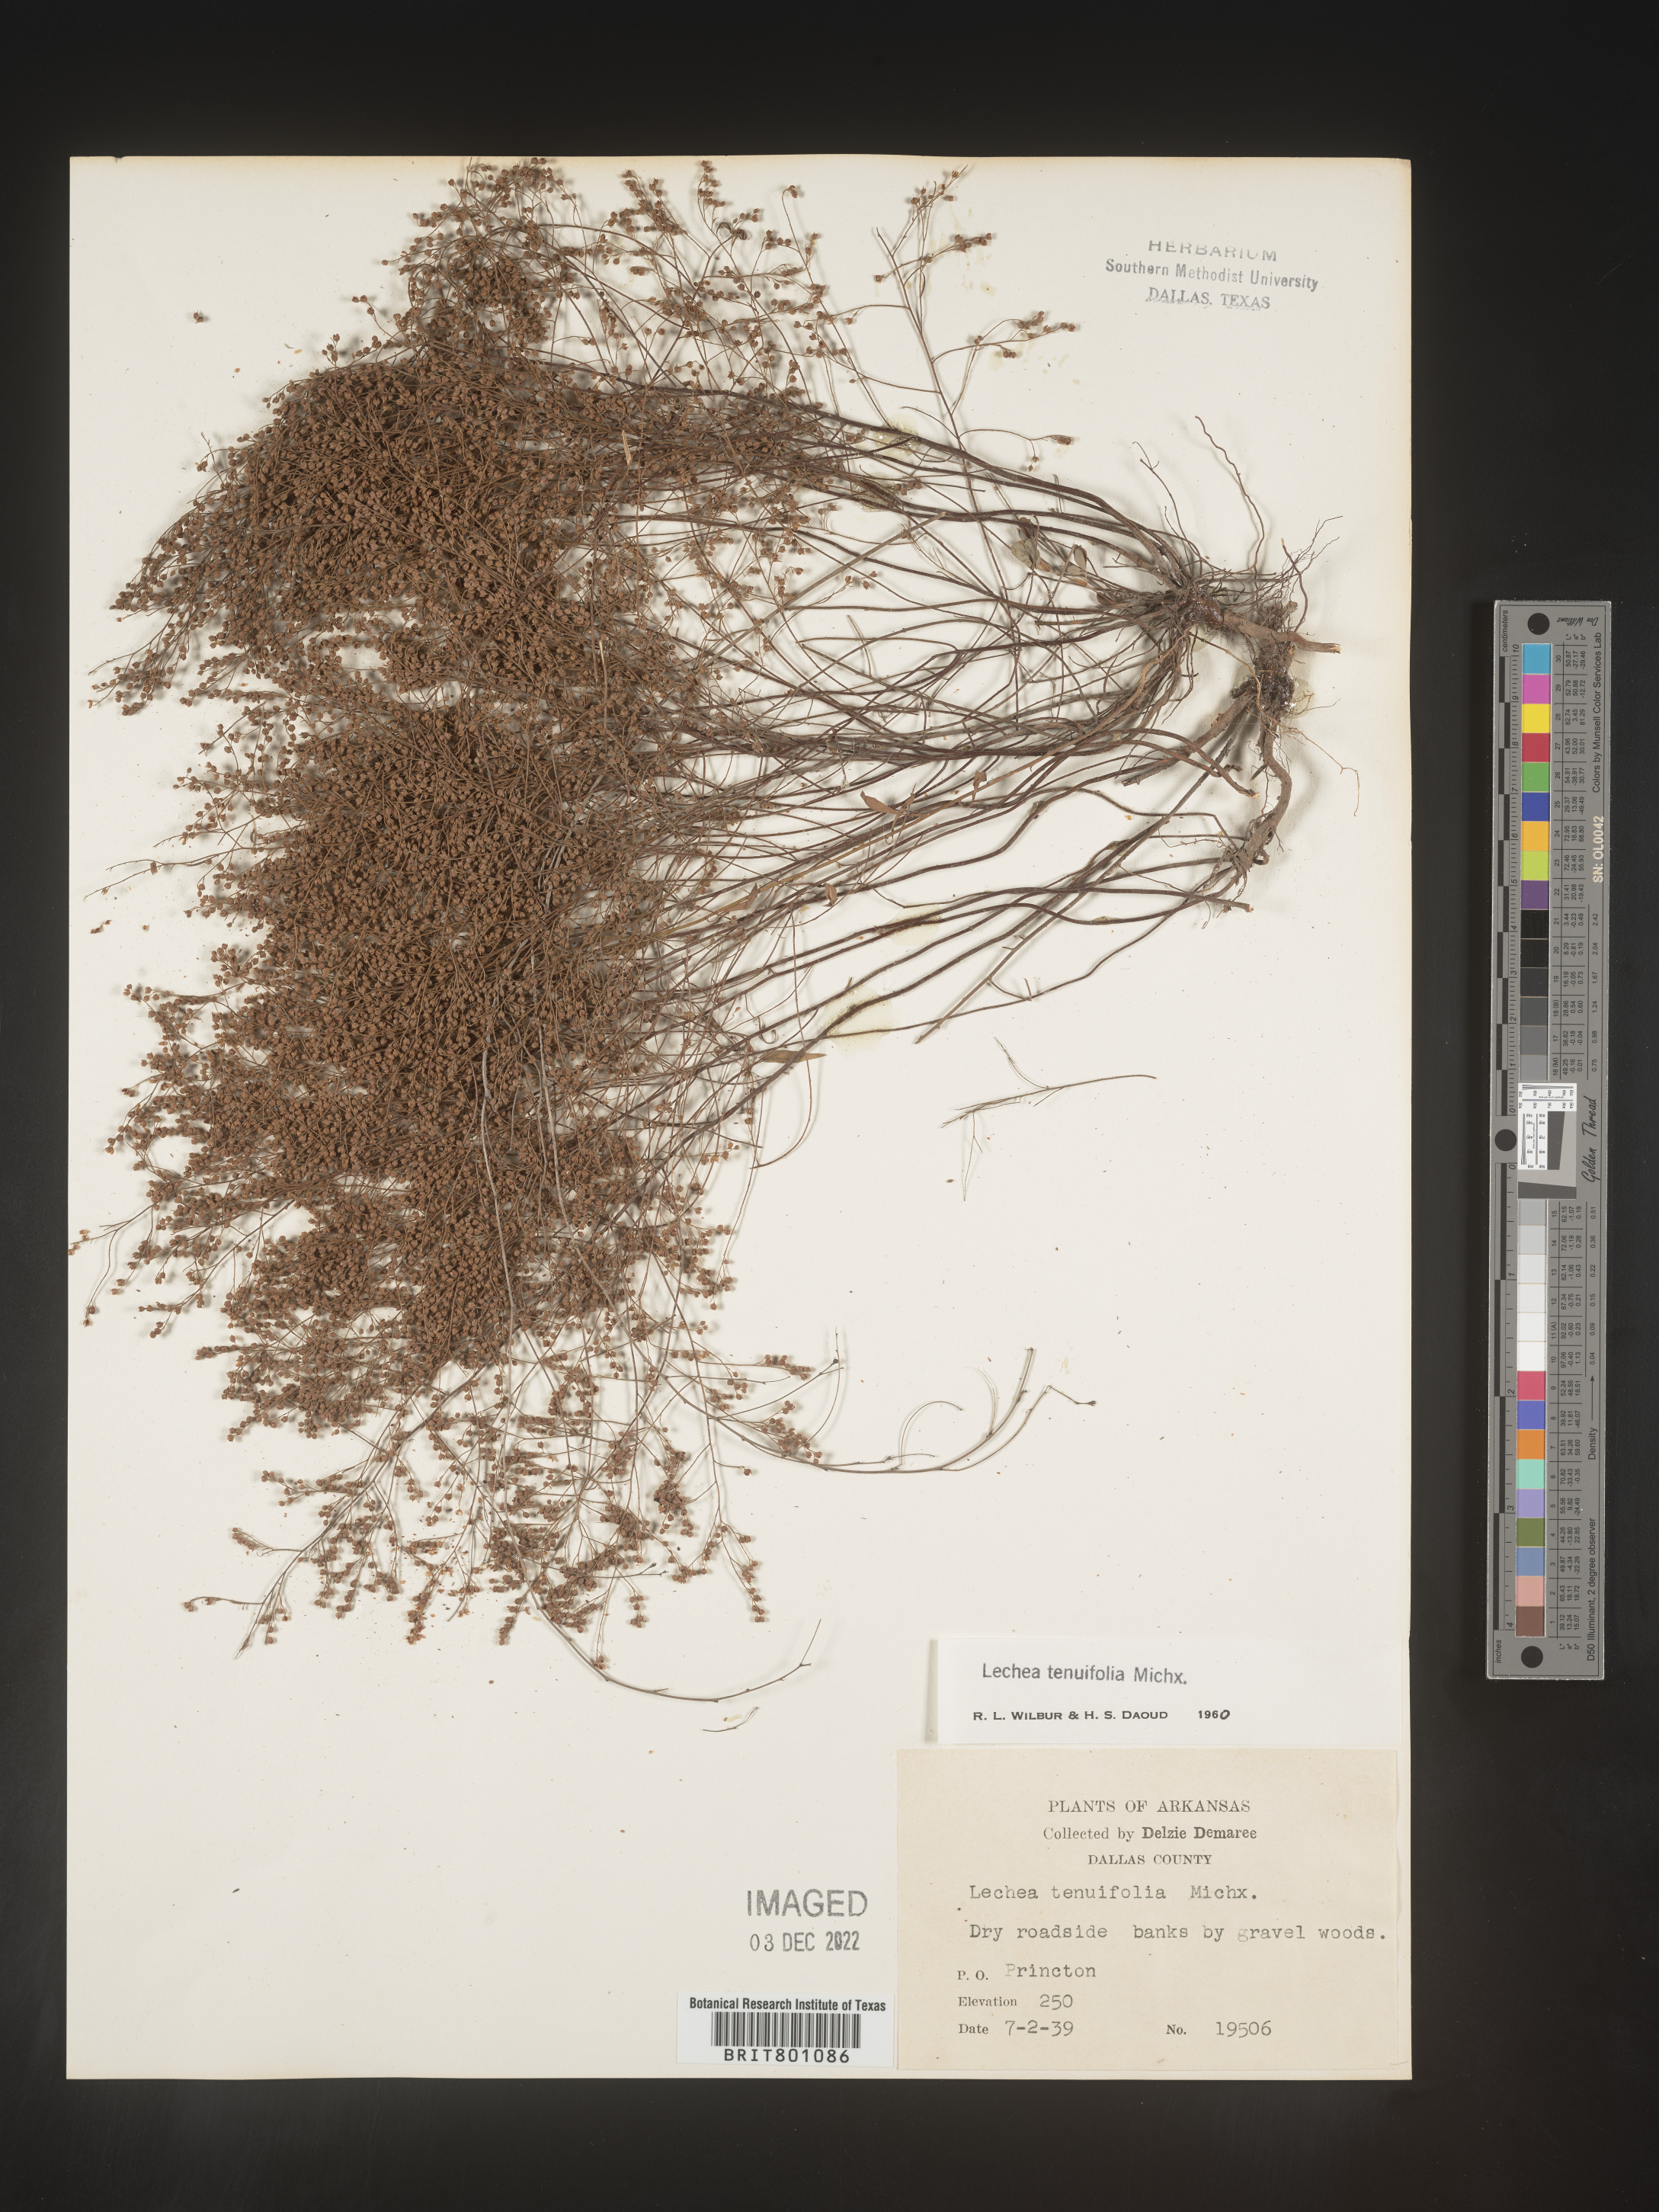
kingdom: Plantae
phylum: Tracheophyta
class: Magnoliopsida
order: Malvales
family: Cistaceae
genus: Lechea
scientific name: Lechea tenuifolia
